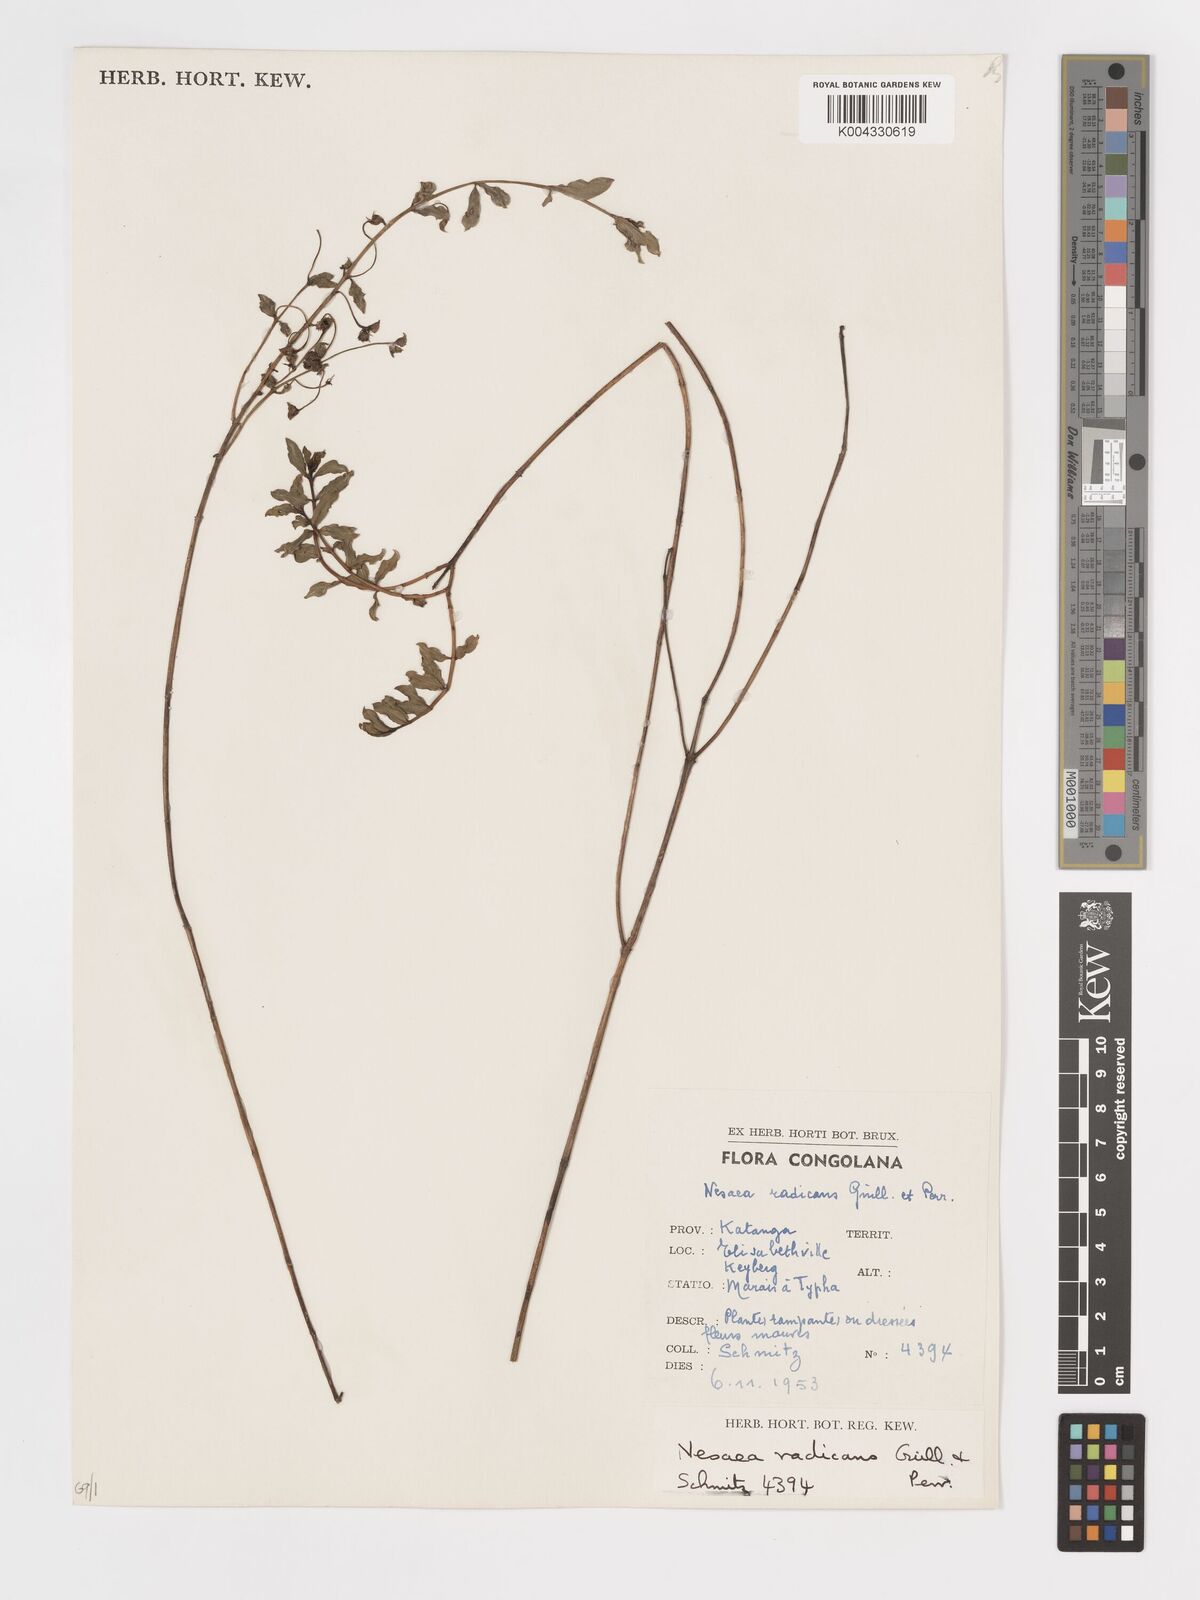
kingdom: Plantae
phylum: Tracheophyta
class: Magnoliopsida
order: Myrtales
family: Lythraceae
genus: Ammannia
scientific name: Ammannia radicans
